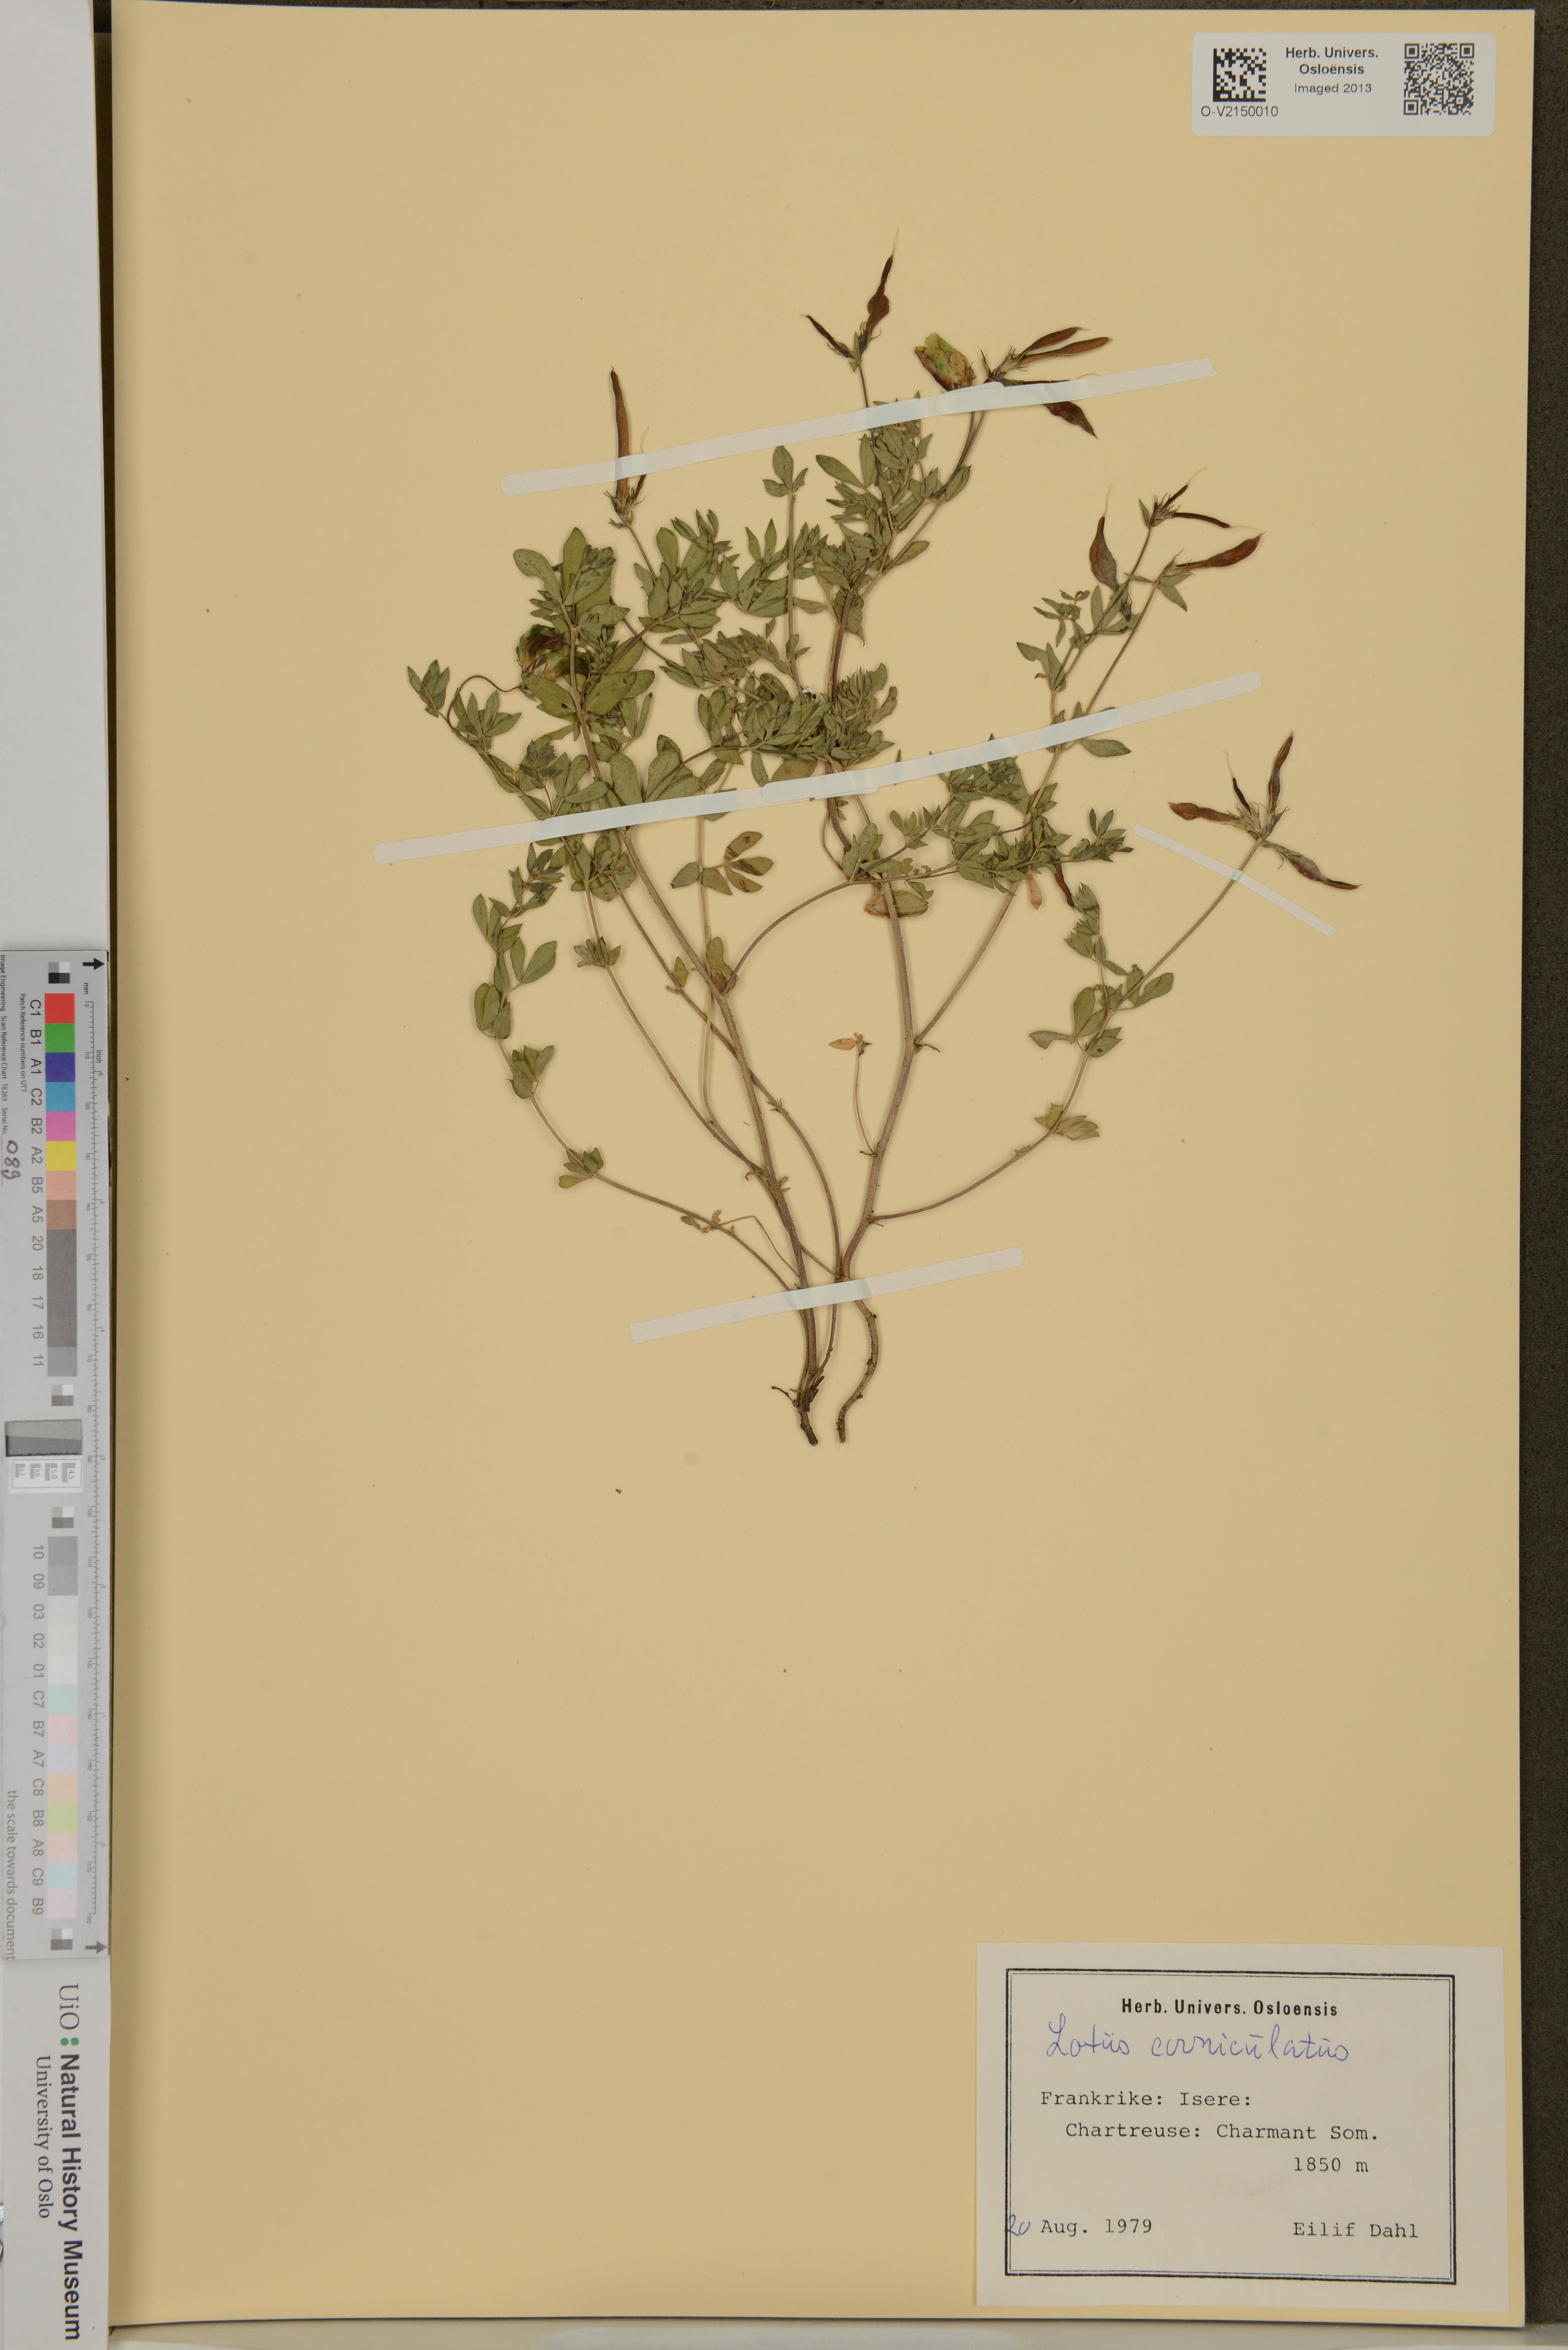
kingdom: Plantae
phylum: Tracheophyta
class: Magnoliopsida
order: Fabales
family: Fabaceae
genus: Lotus
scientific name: Lotus corniculatus
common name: Common bird's-foot-trefoil
